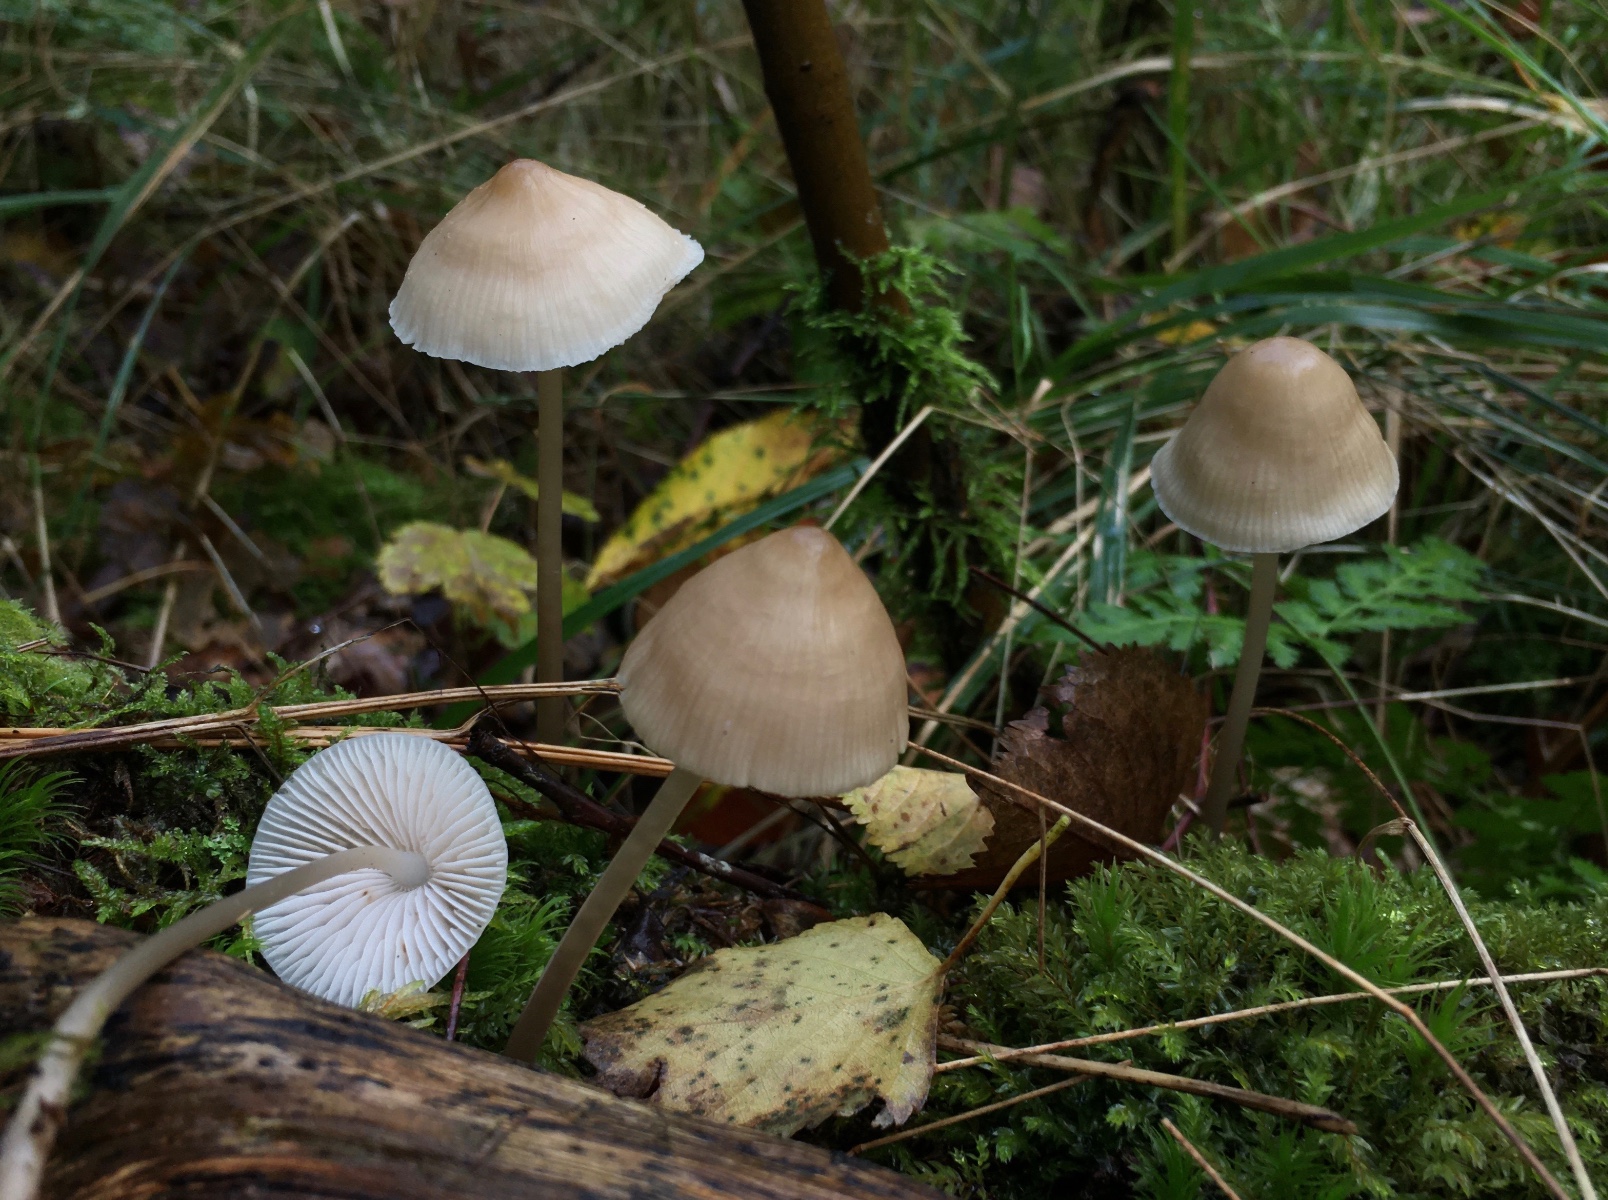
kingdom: Fungi
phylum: Basidiomycota
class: Agaricomycetes
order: Agaricales
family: Mycenaceae
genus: Mycena
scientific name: Mycena galericulata
